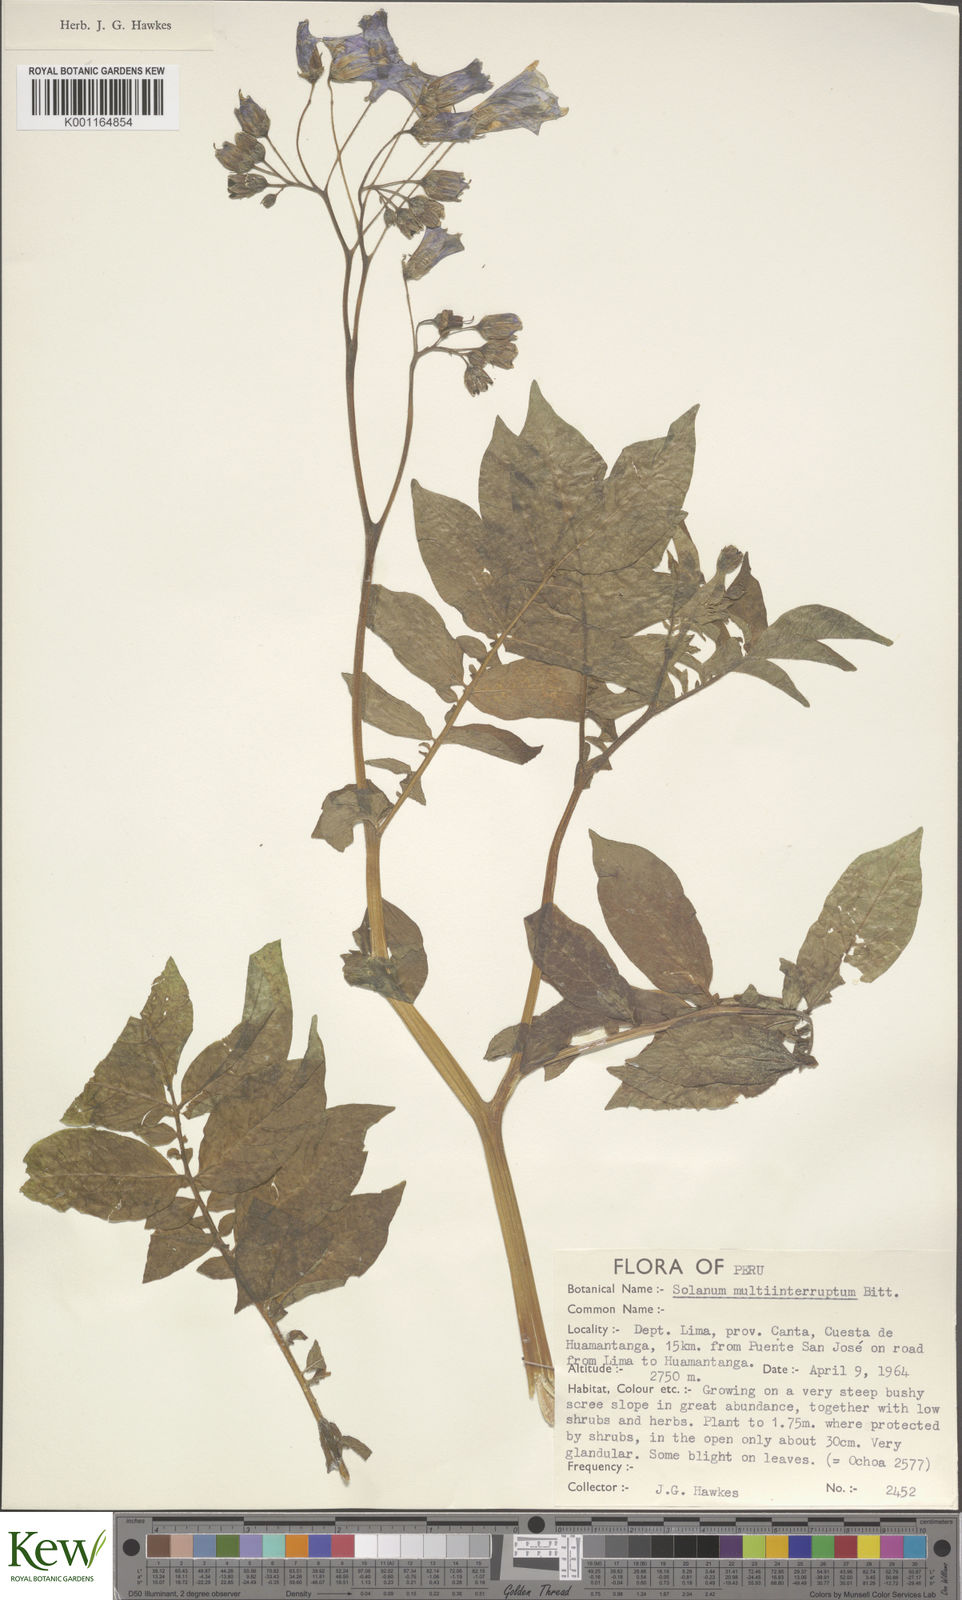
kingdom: Plantae
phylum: Tracheophyta
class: Magnoliopsida
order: Solanales
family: Solanaceae
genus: Solanum
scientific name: Solanum multiinterruptum
